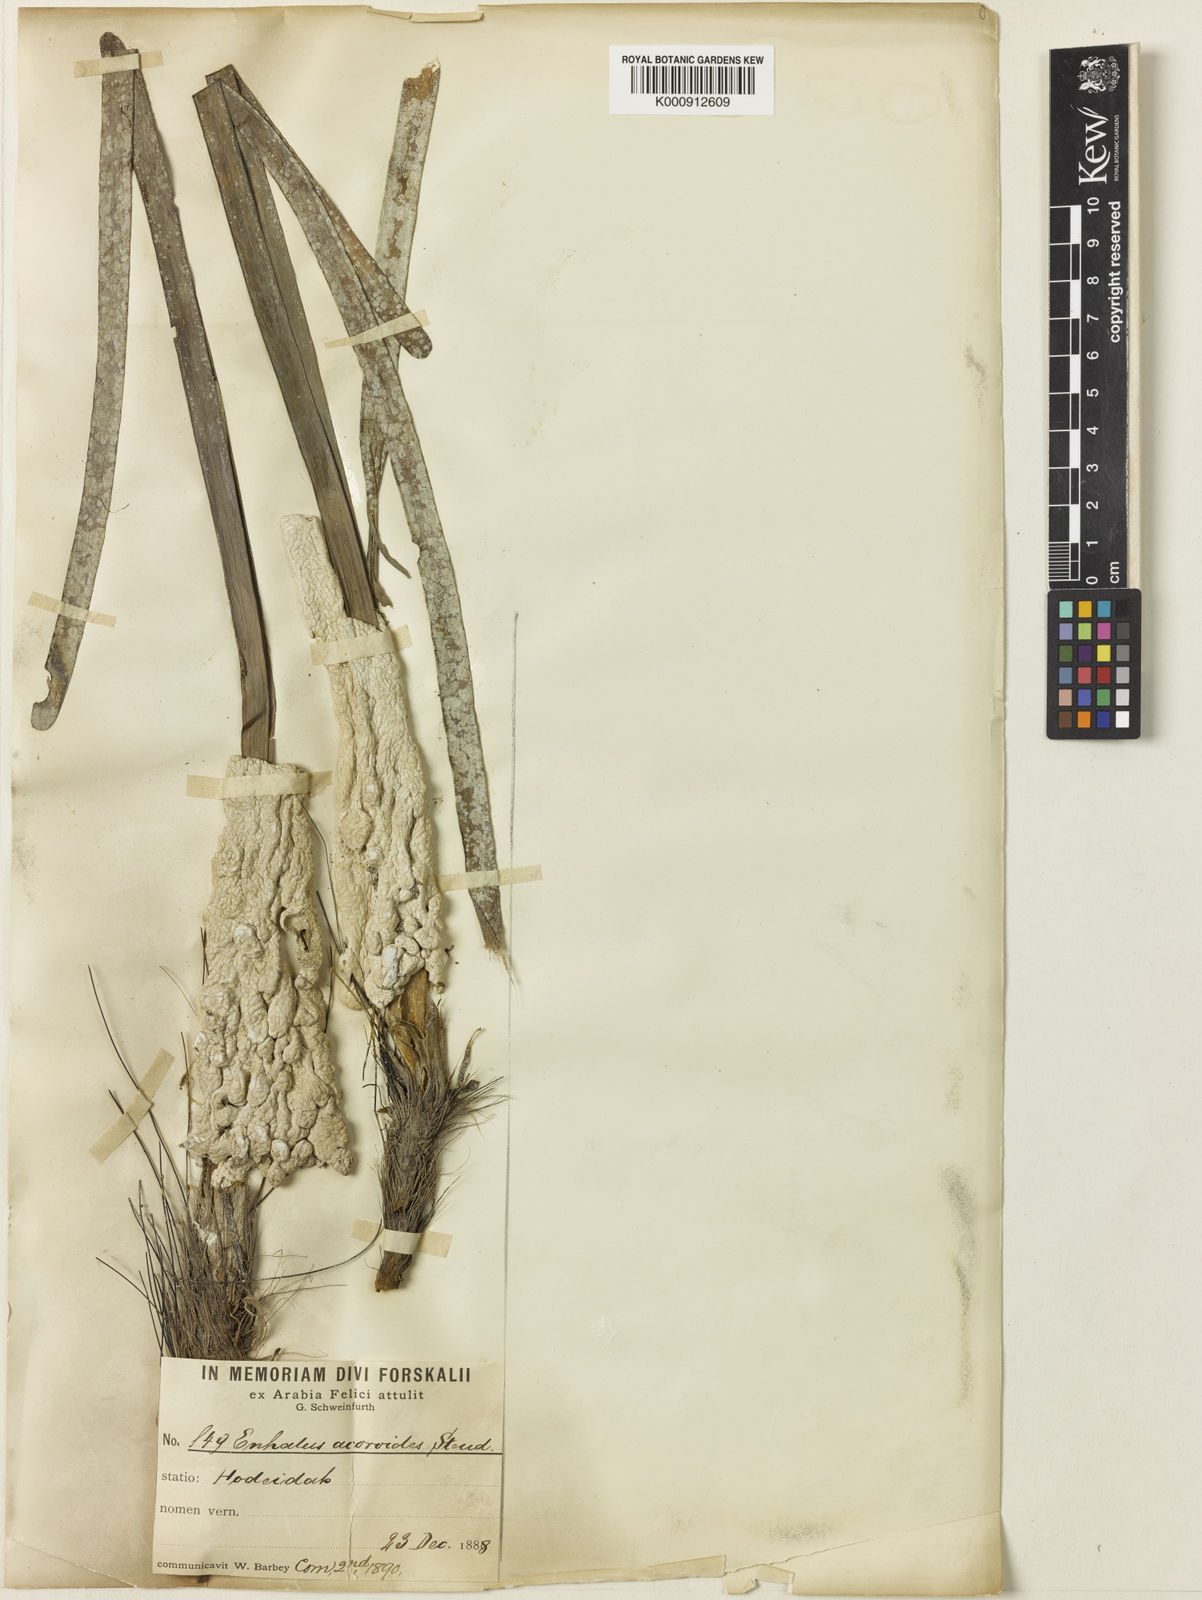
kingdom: Plantae
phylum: Tracheophyta
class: Liliopsida
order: Alismatales
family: Hydrocharitaceae
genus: Enhalus
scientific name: Enhalus
